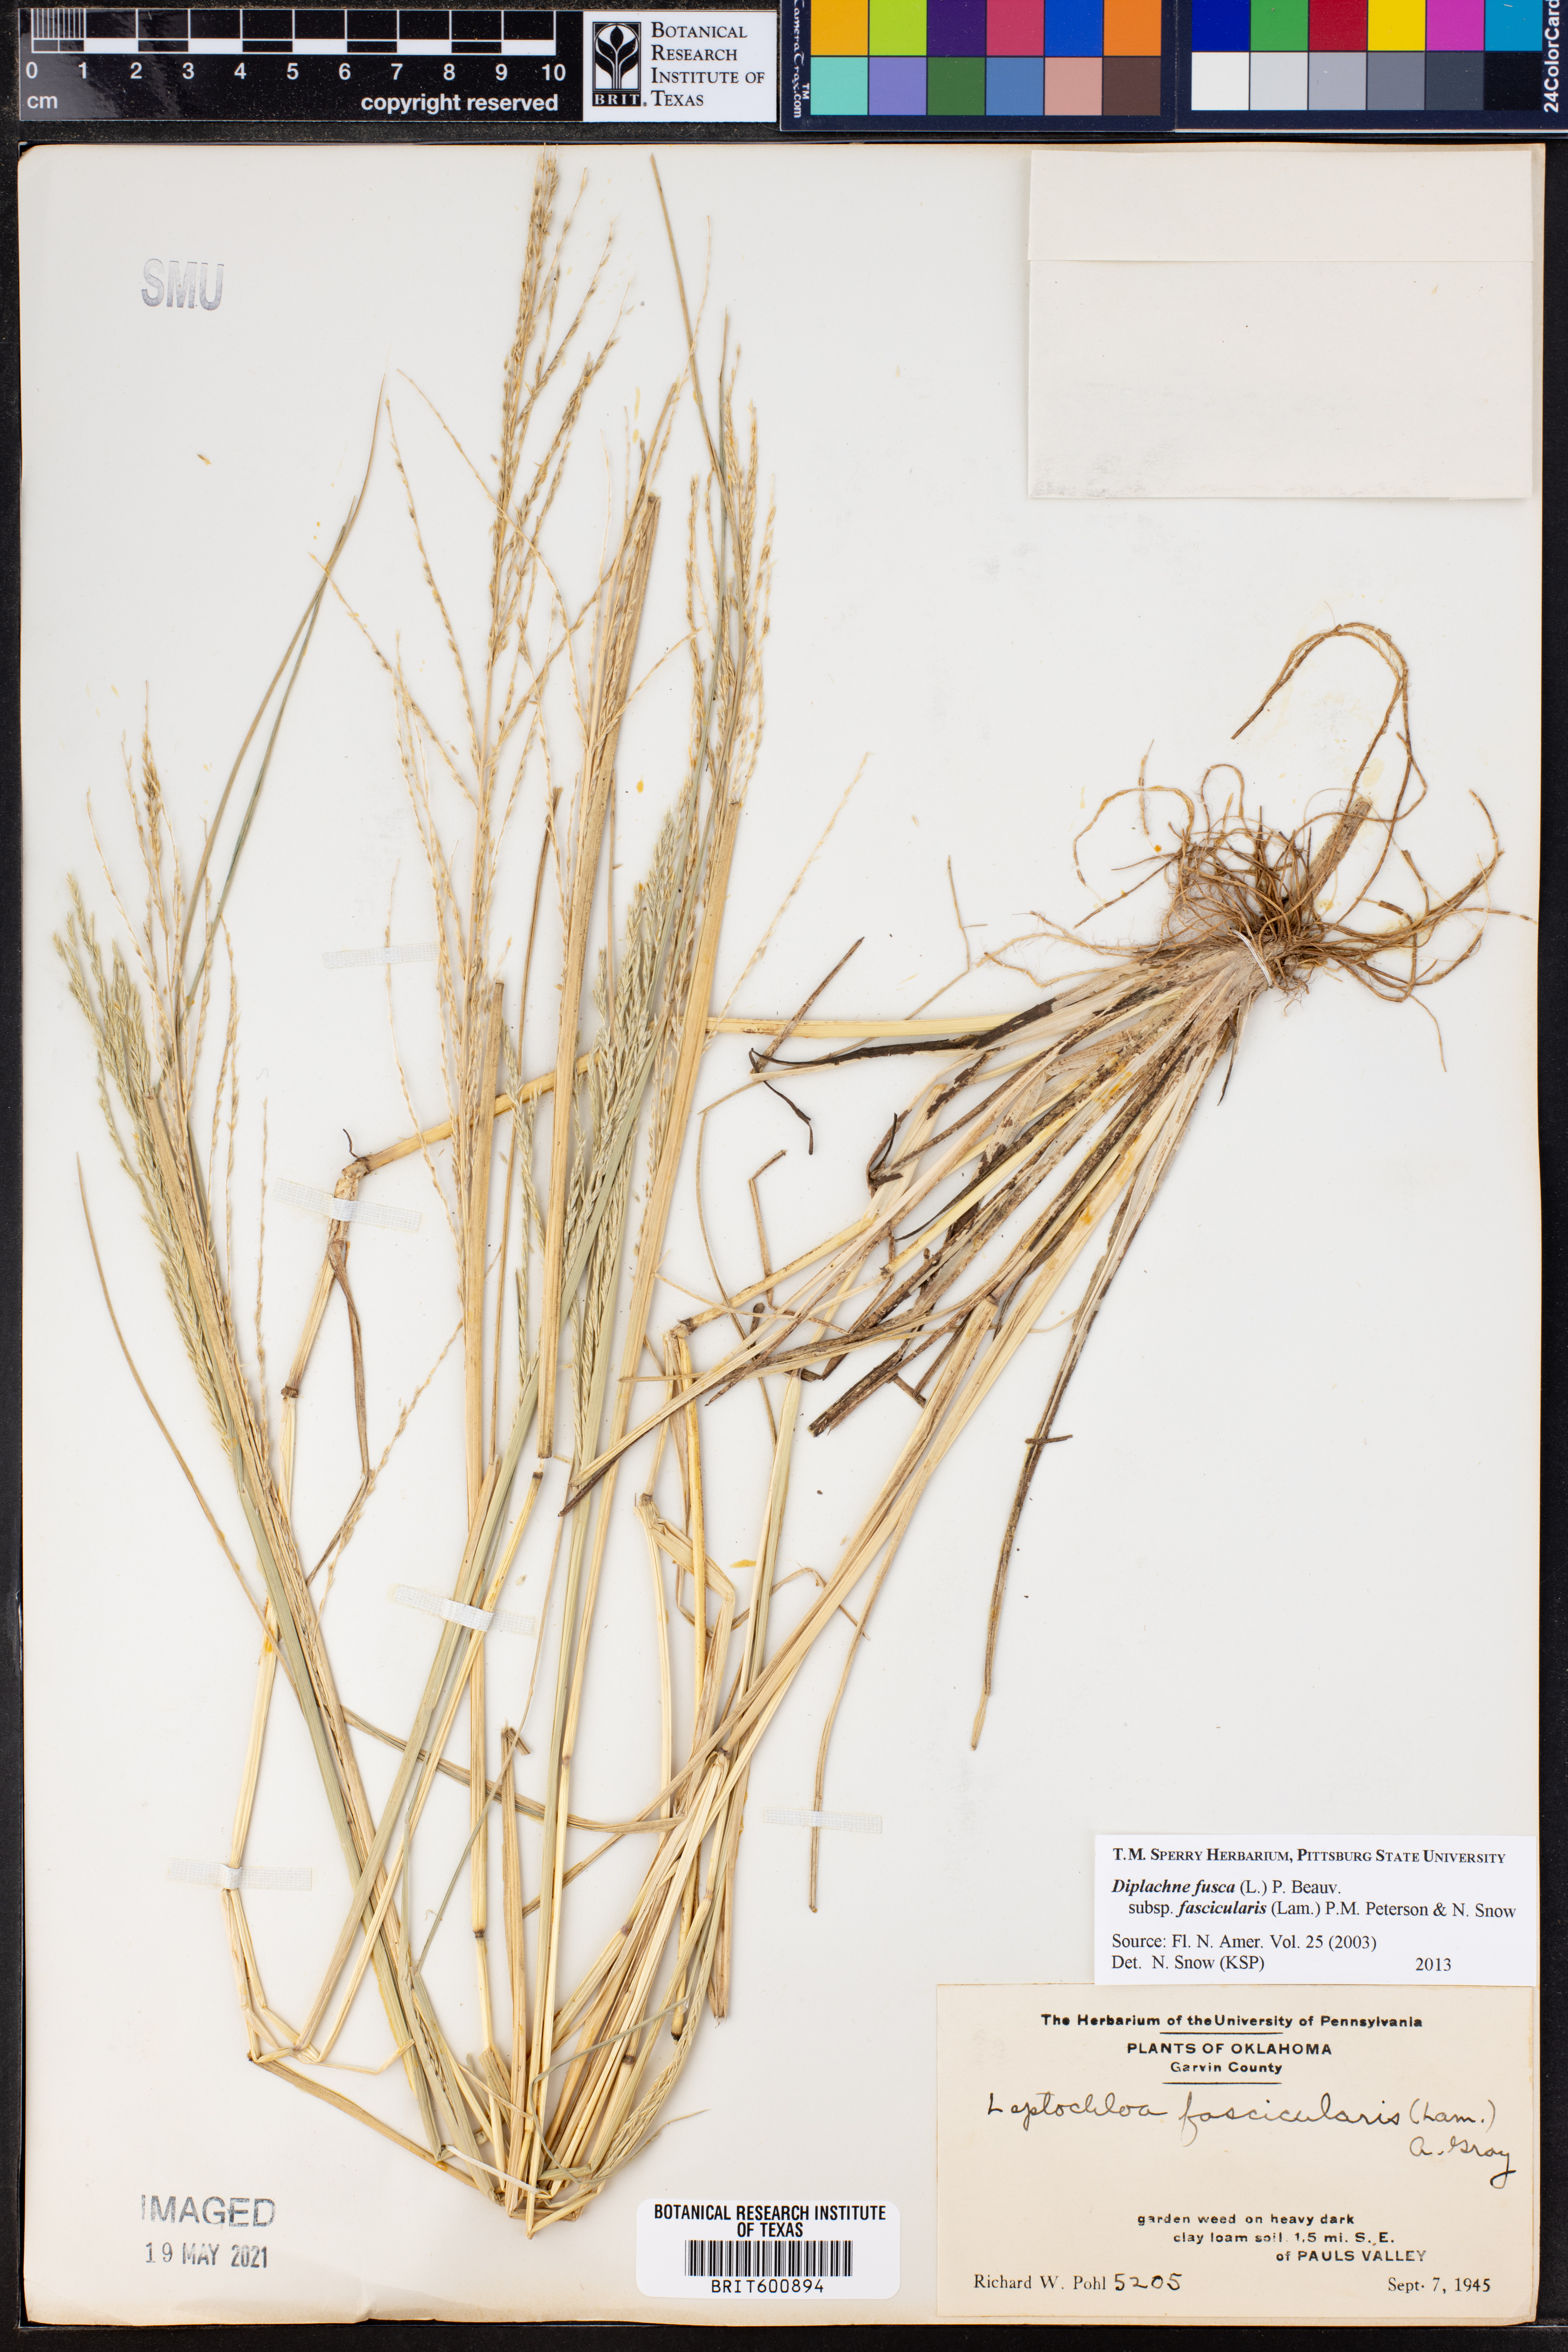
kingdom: Plantae
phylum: Tracheophyta
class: Liliopsida
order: Poales
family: Poaceae
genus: Diplachne
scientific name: Diplachne fusca
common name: Brown beetle grass
